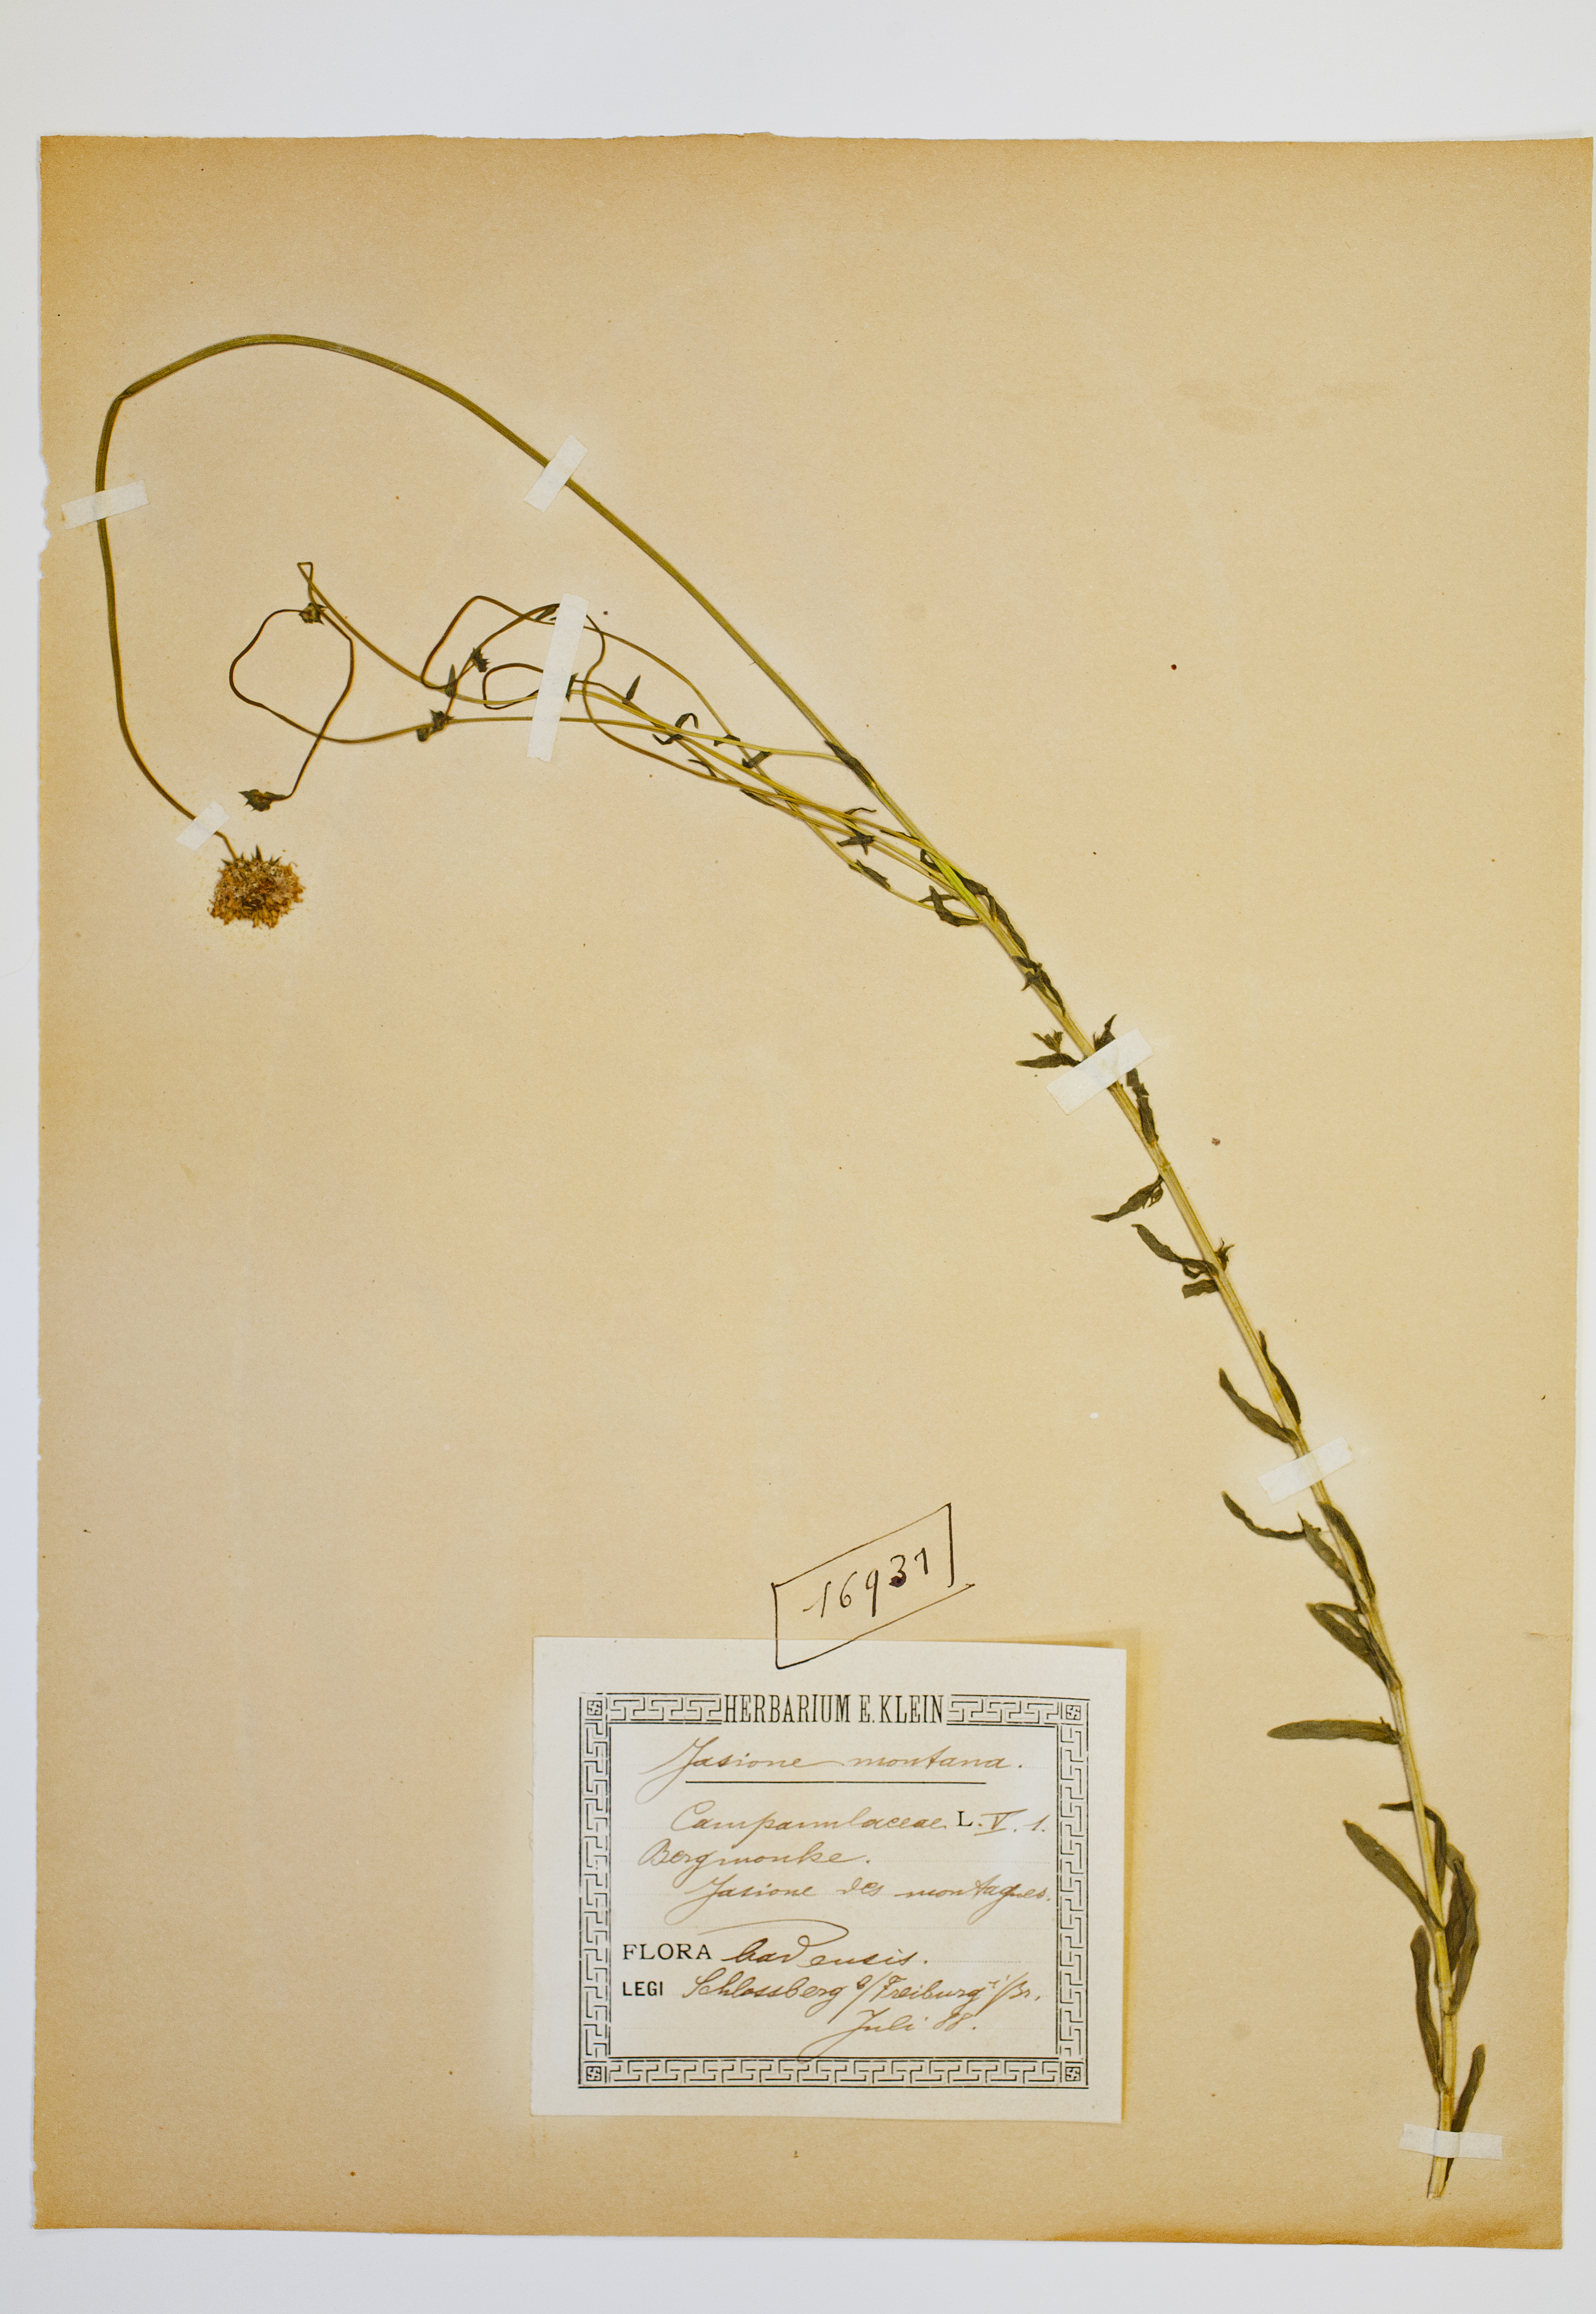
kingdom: Plantae
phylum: Tracheophyta
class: Magnoliopsida
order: Asterales
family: Campanulaceae
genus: Jasione
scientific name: Jasione montana
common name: Sheep's-bit
